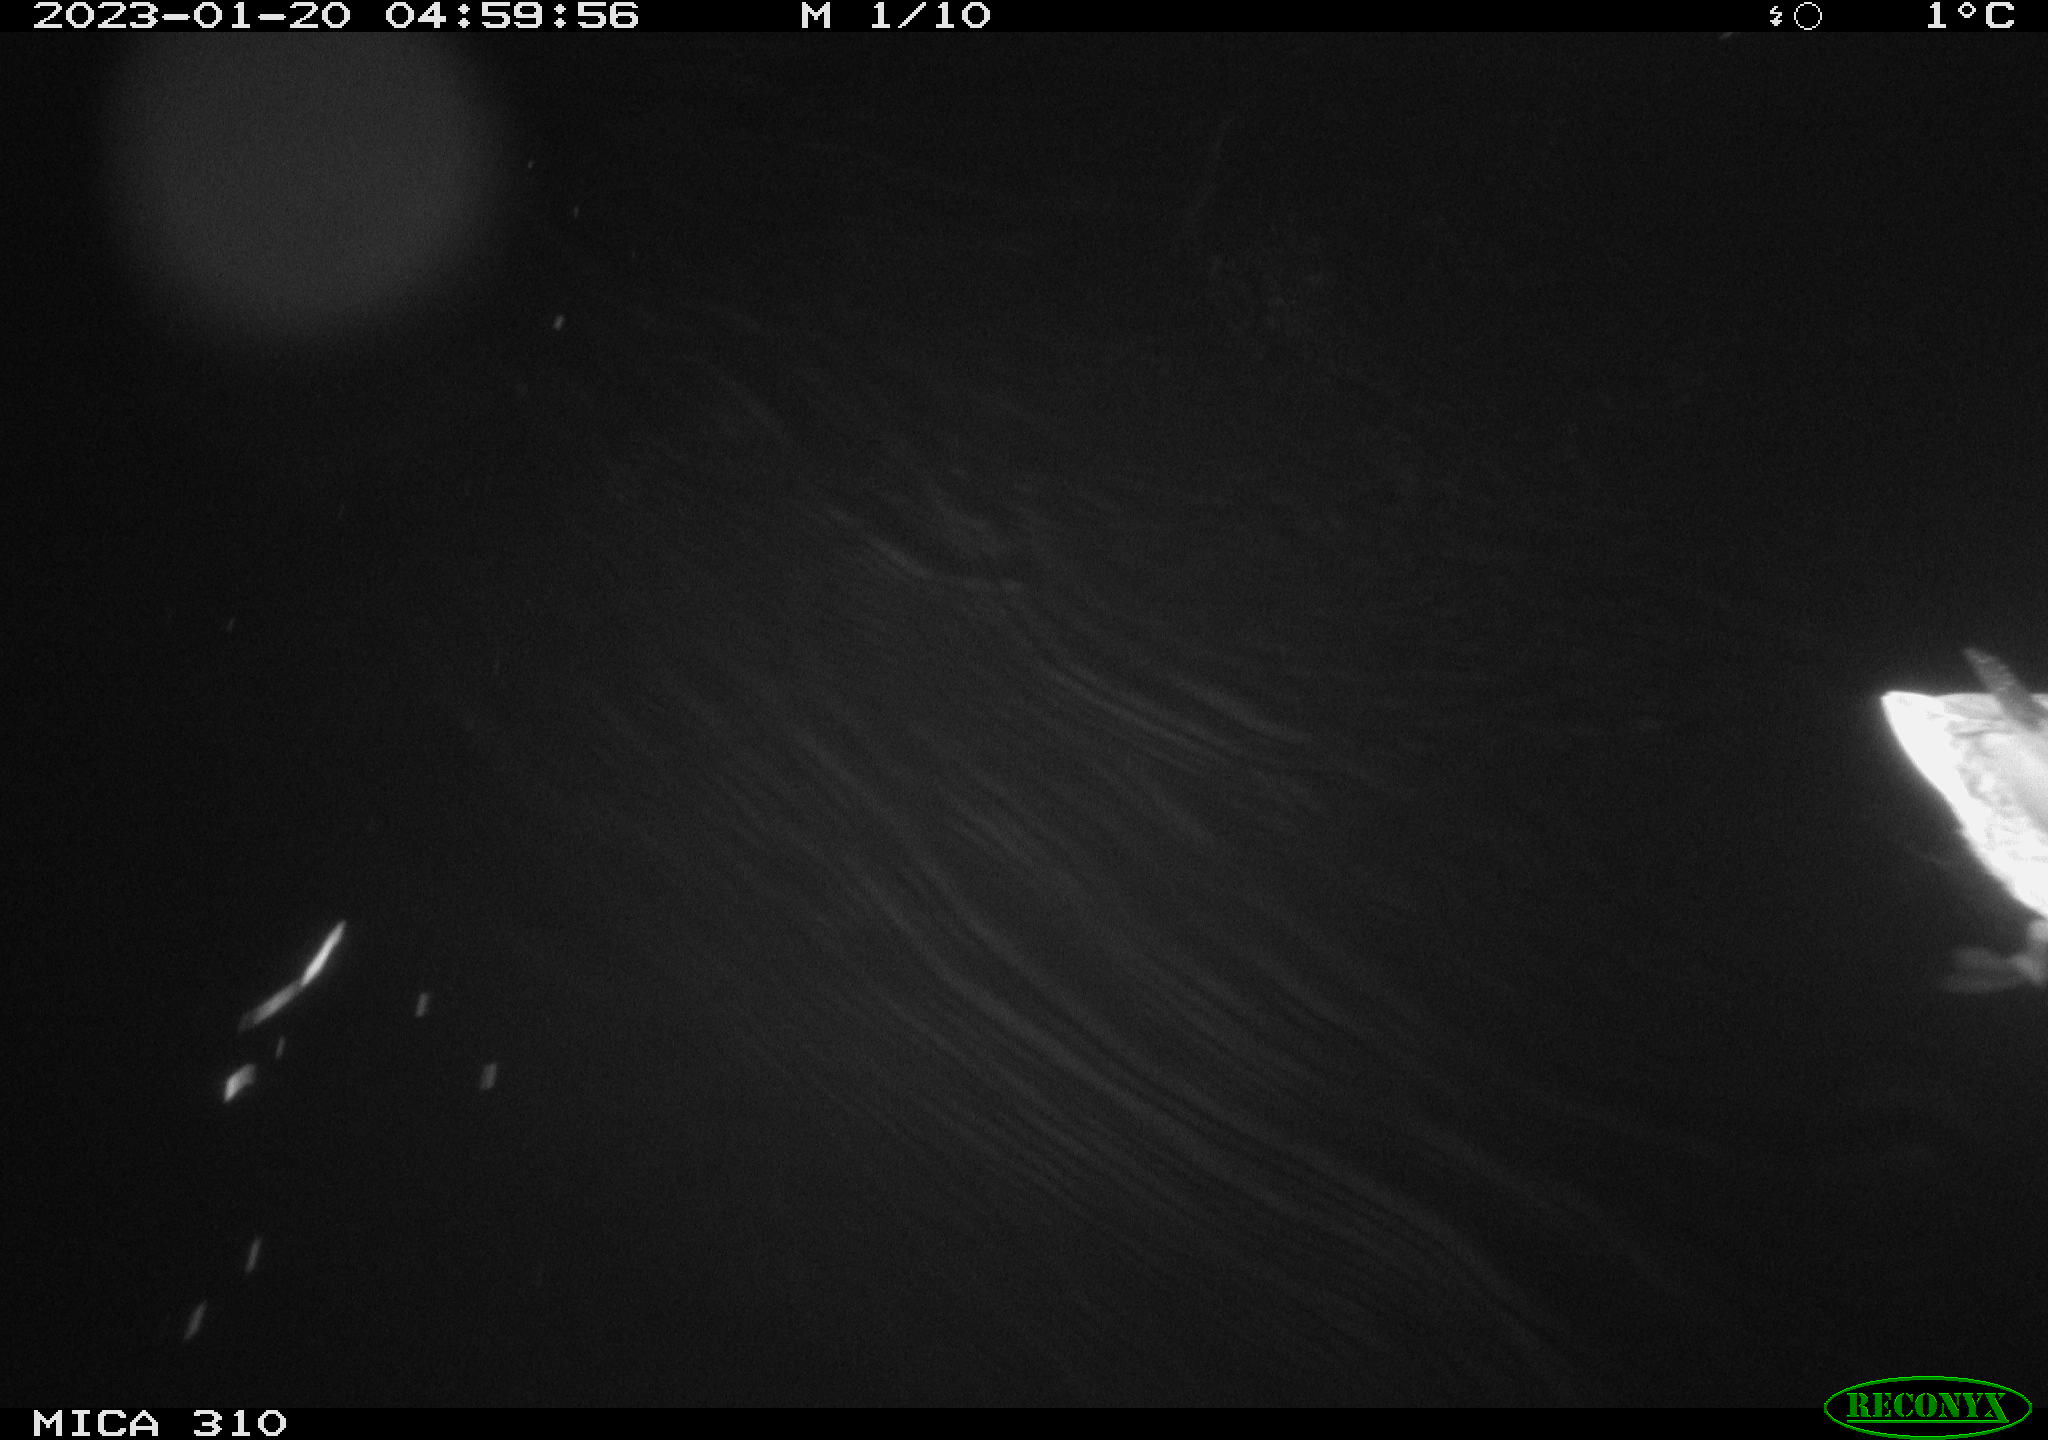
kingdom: Animalia
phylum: Chordata
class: Aves
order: Anseriformes
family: Anatidae
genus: Anas
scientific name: Anas
